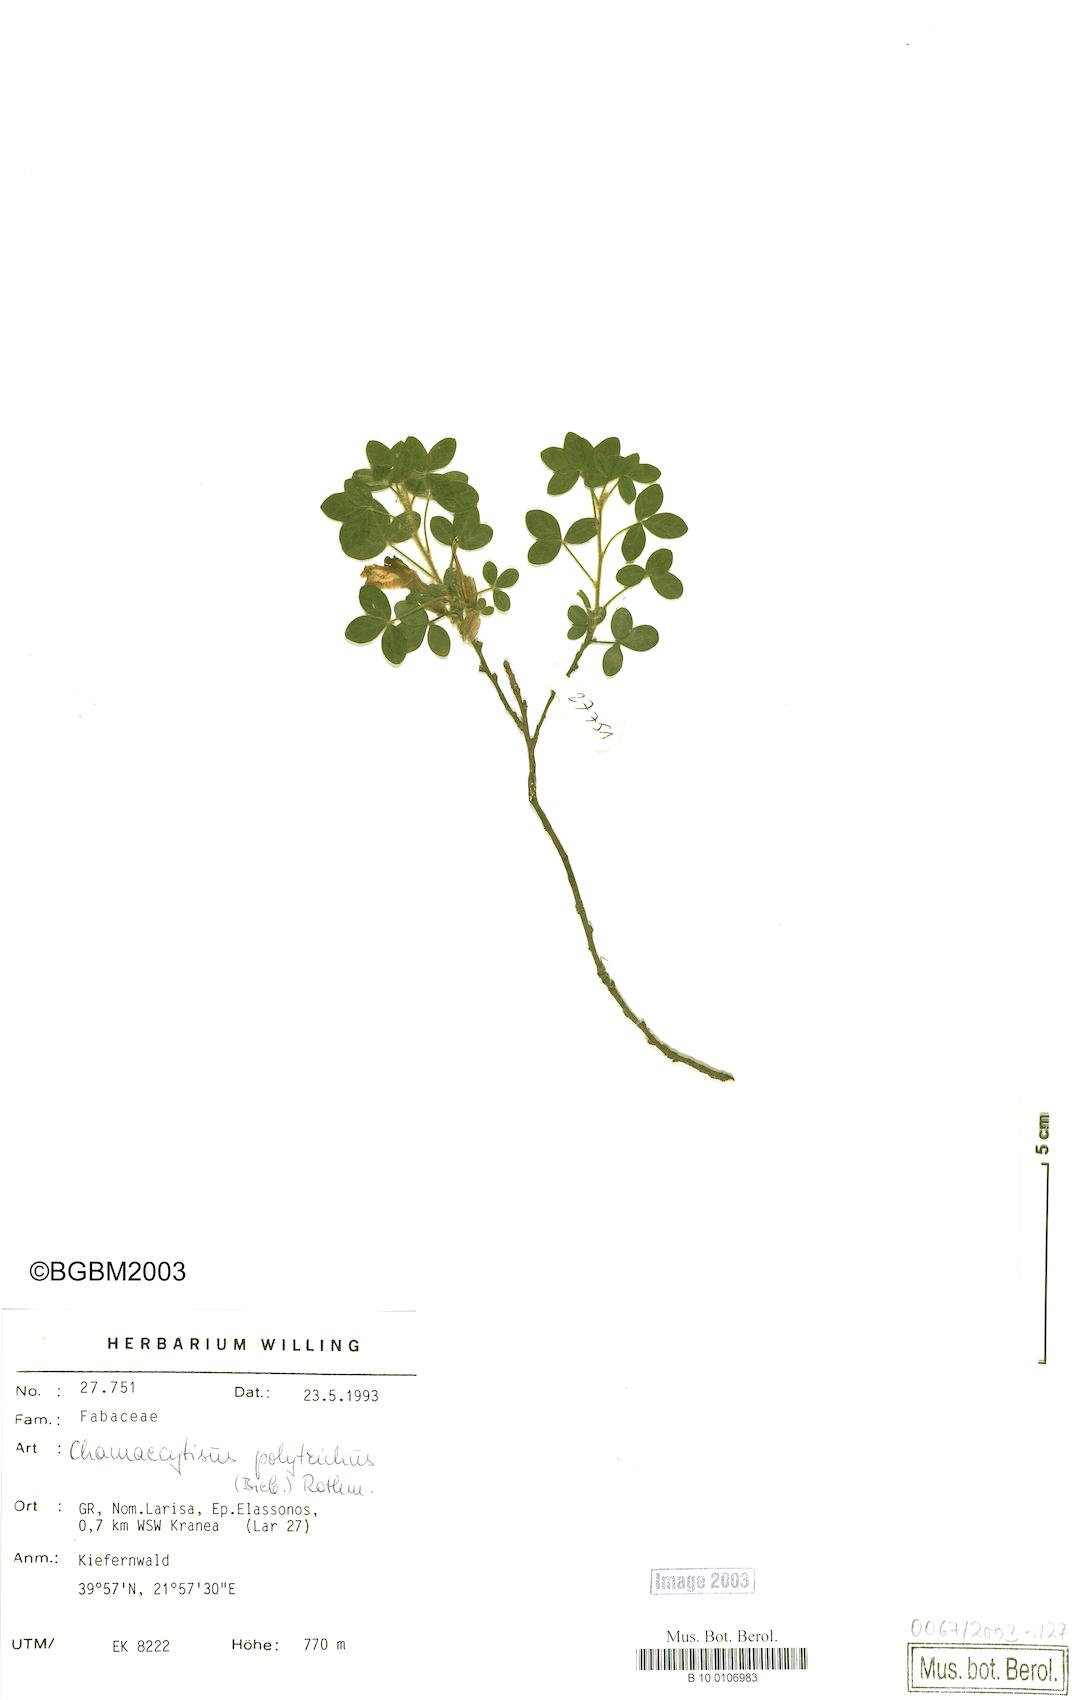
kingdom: Plantae
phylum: Tracheophyta
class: Magnoliopsida
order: Fabales
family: Fabaceae
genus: Chamaecytisus
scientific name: Chamaecytisus hirsutus
